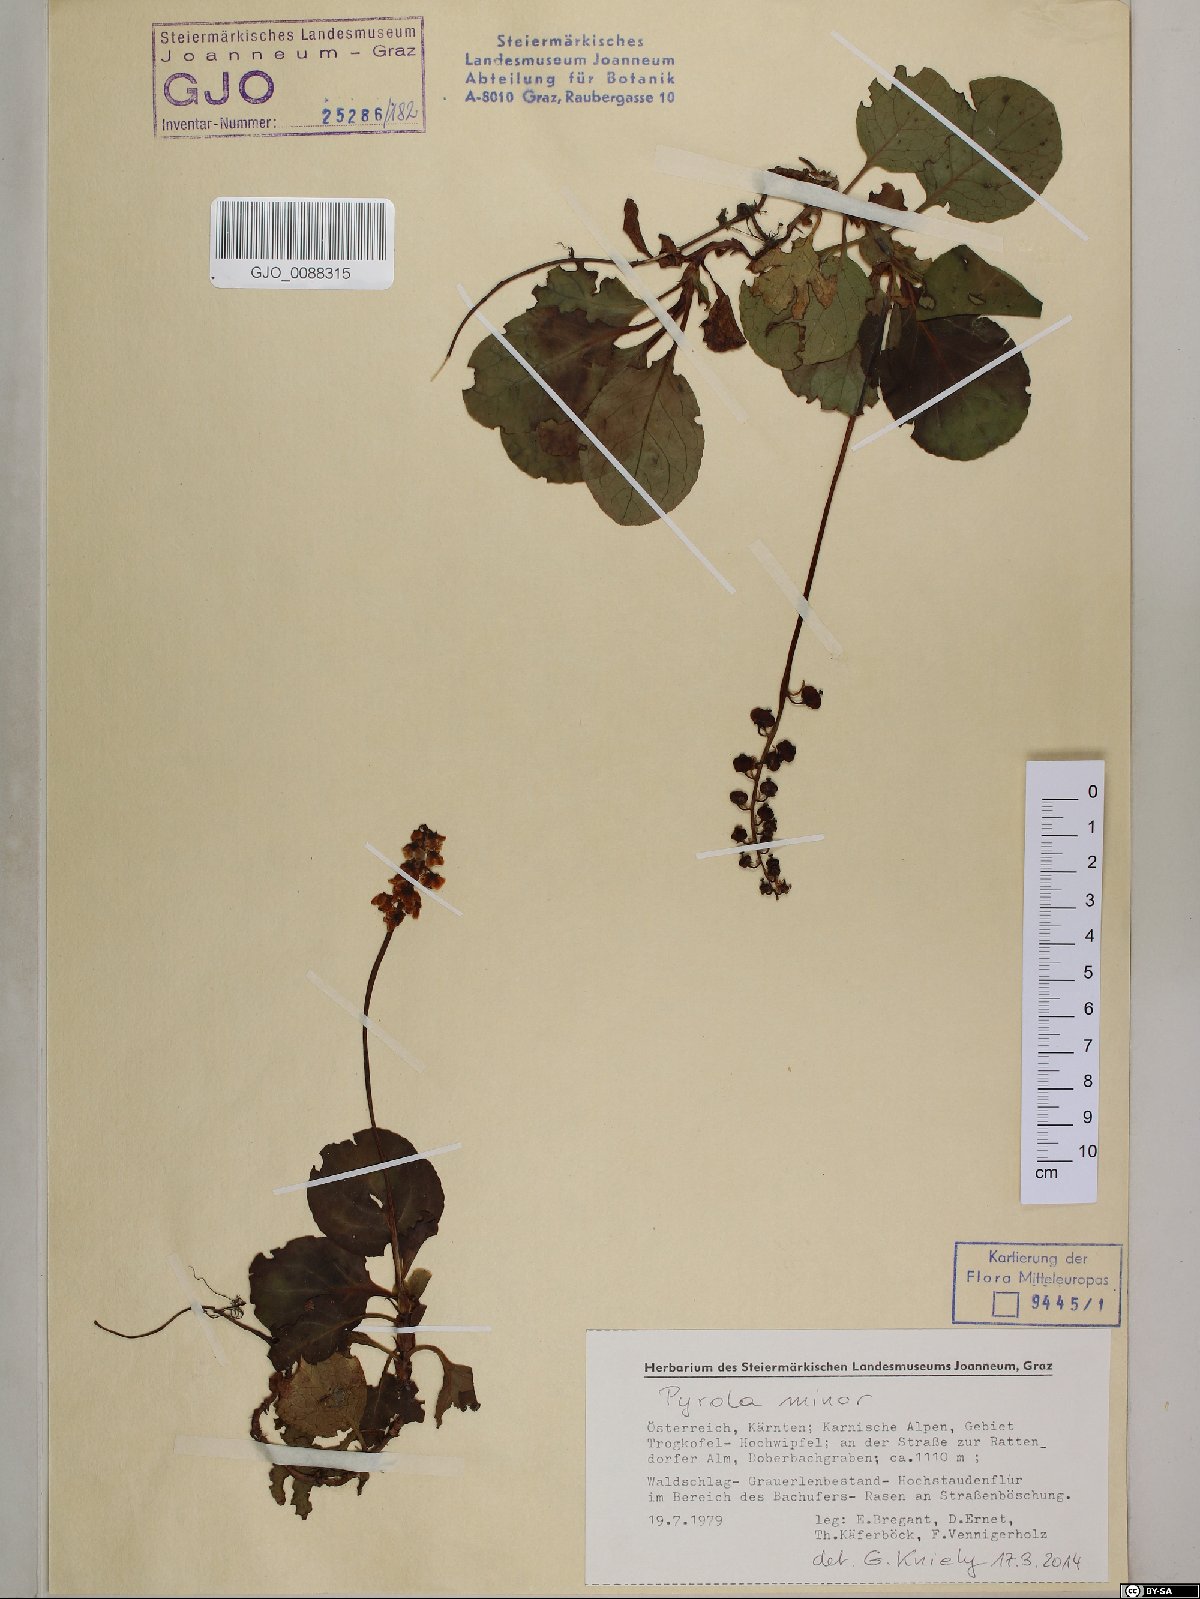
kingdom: Plantae
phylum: Tracheophyta
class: Magnoliopsida
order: Ericales
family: Ericaceae
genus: Pyrola
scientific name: Pyrola minor
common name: Common wintergreen
